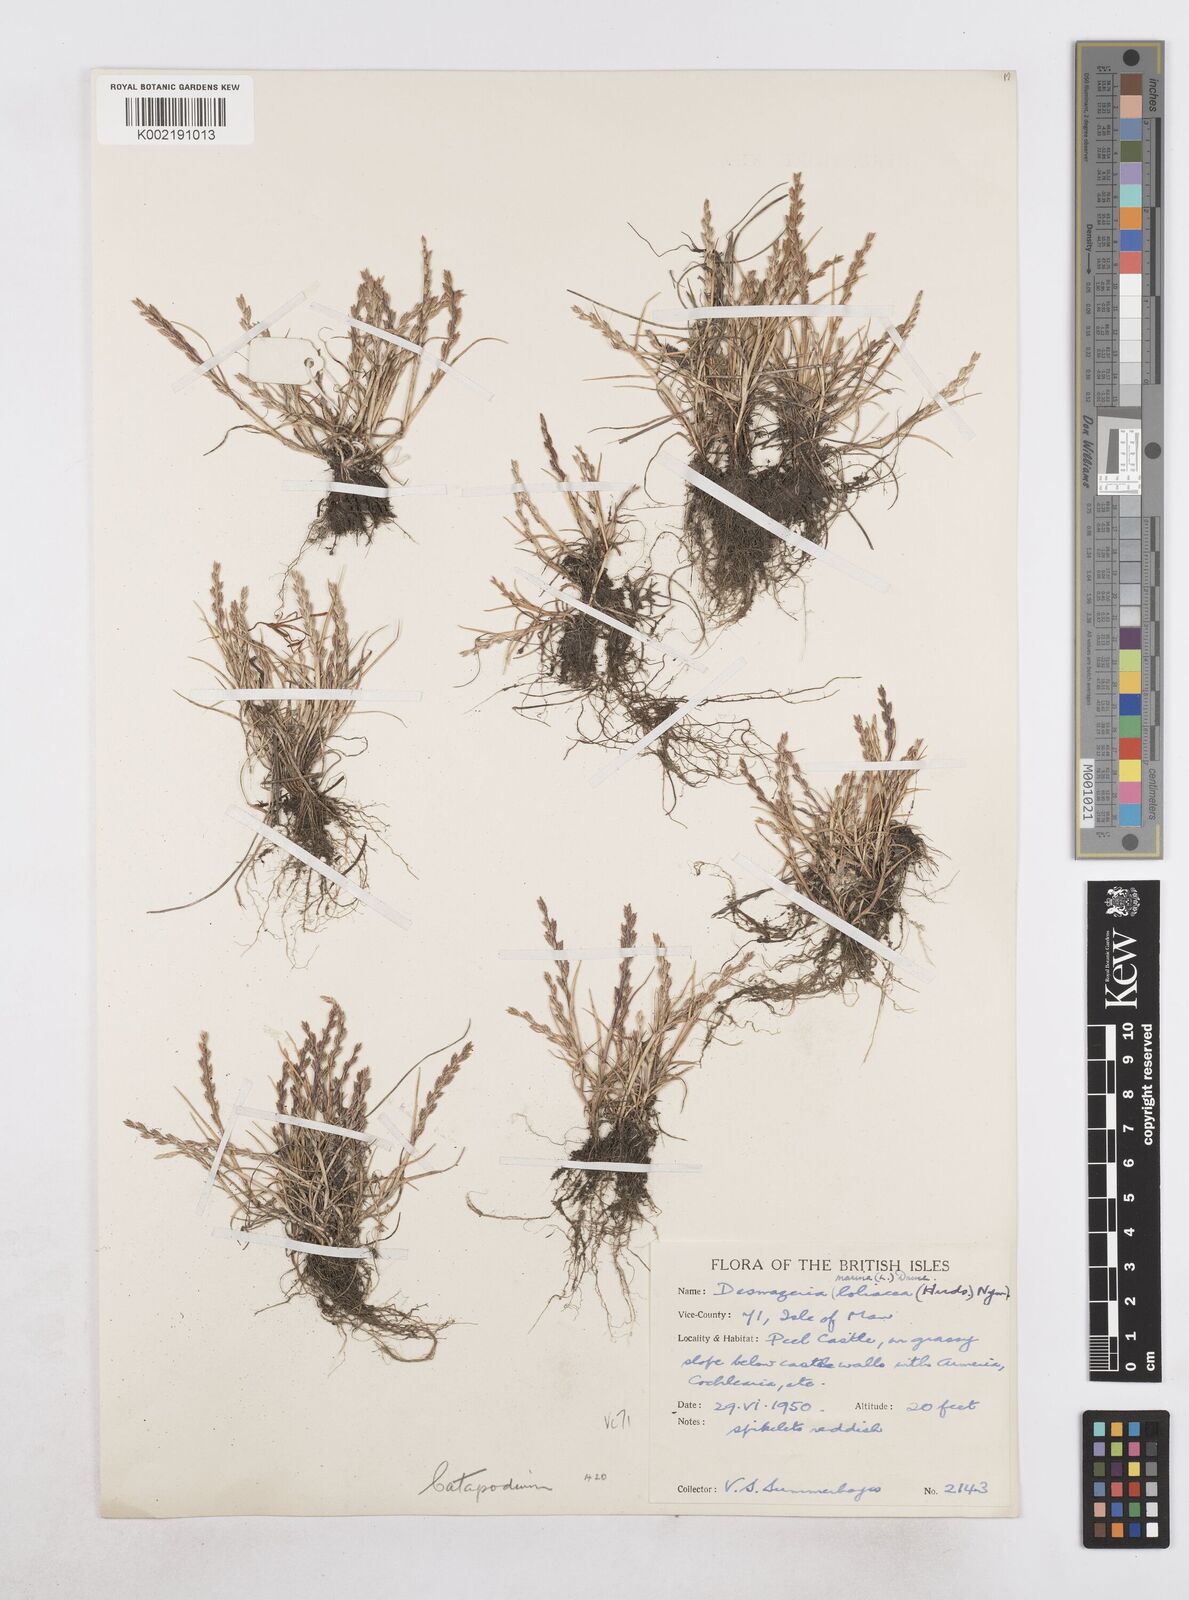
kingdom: Plantae
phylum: Tracheophyta
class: Liliopsida
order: Poales
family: Poaceae
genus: Catapodium
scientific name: Catapodium marinum
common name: Sea fern-grass
